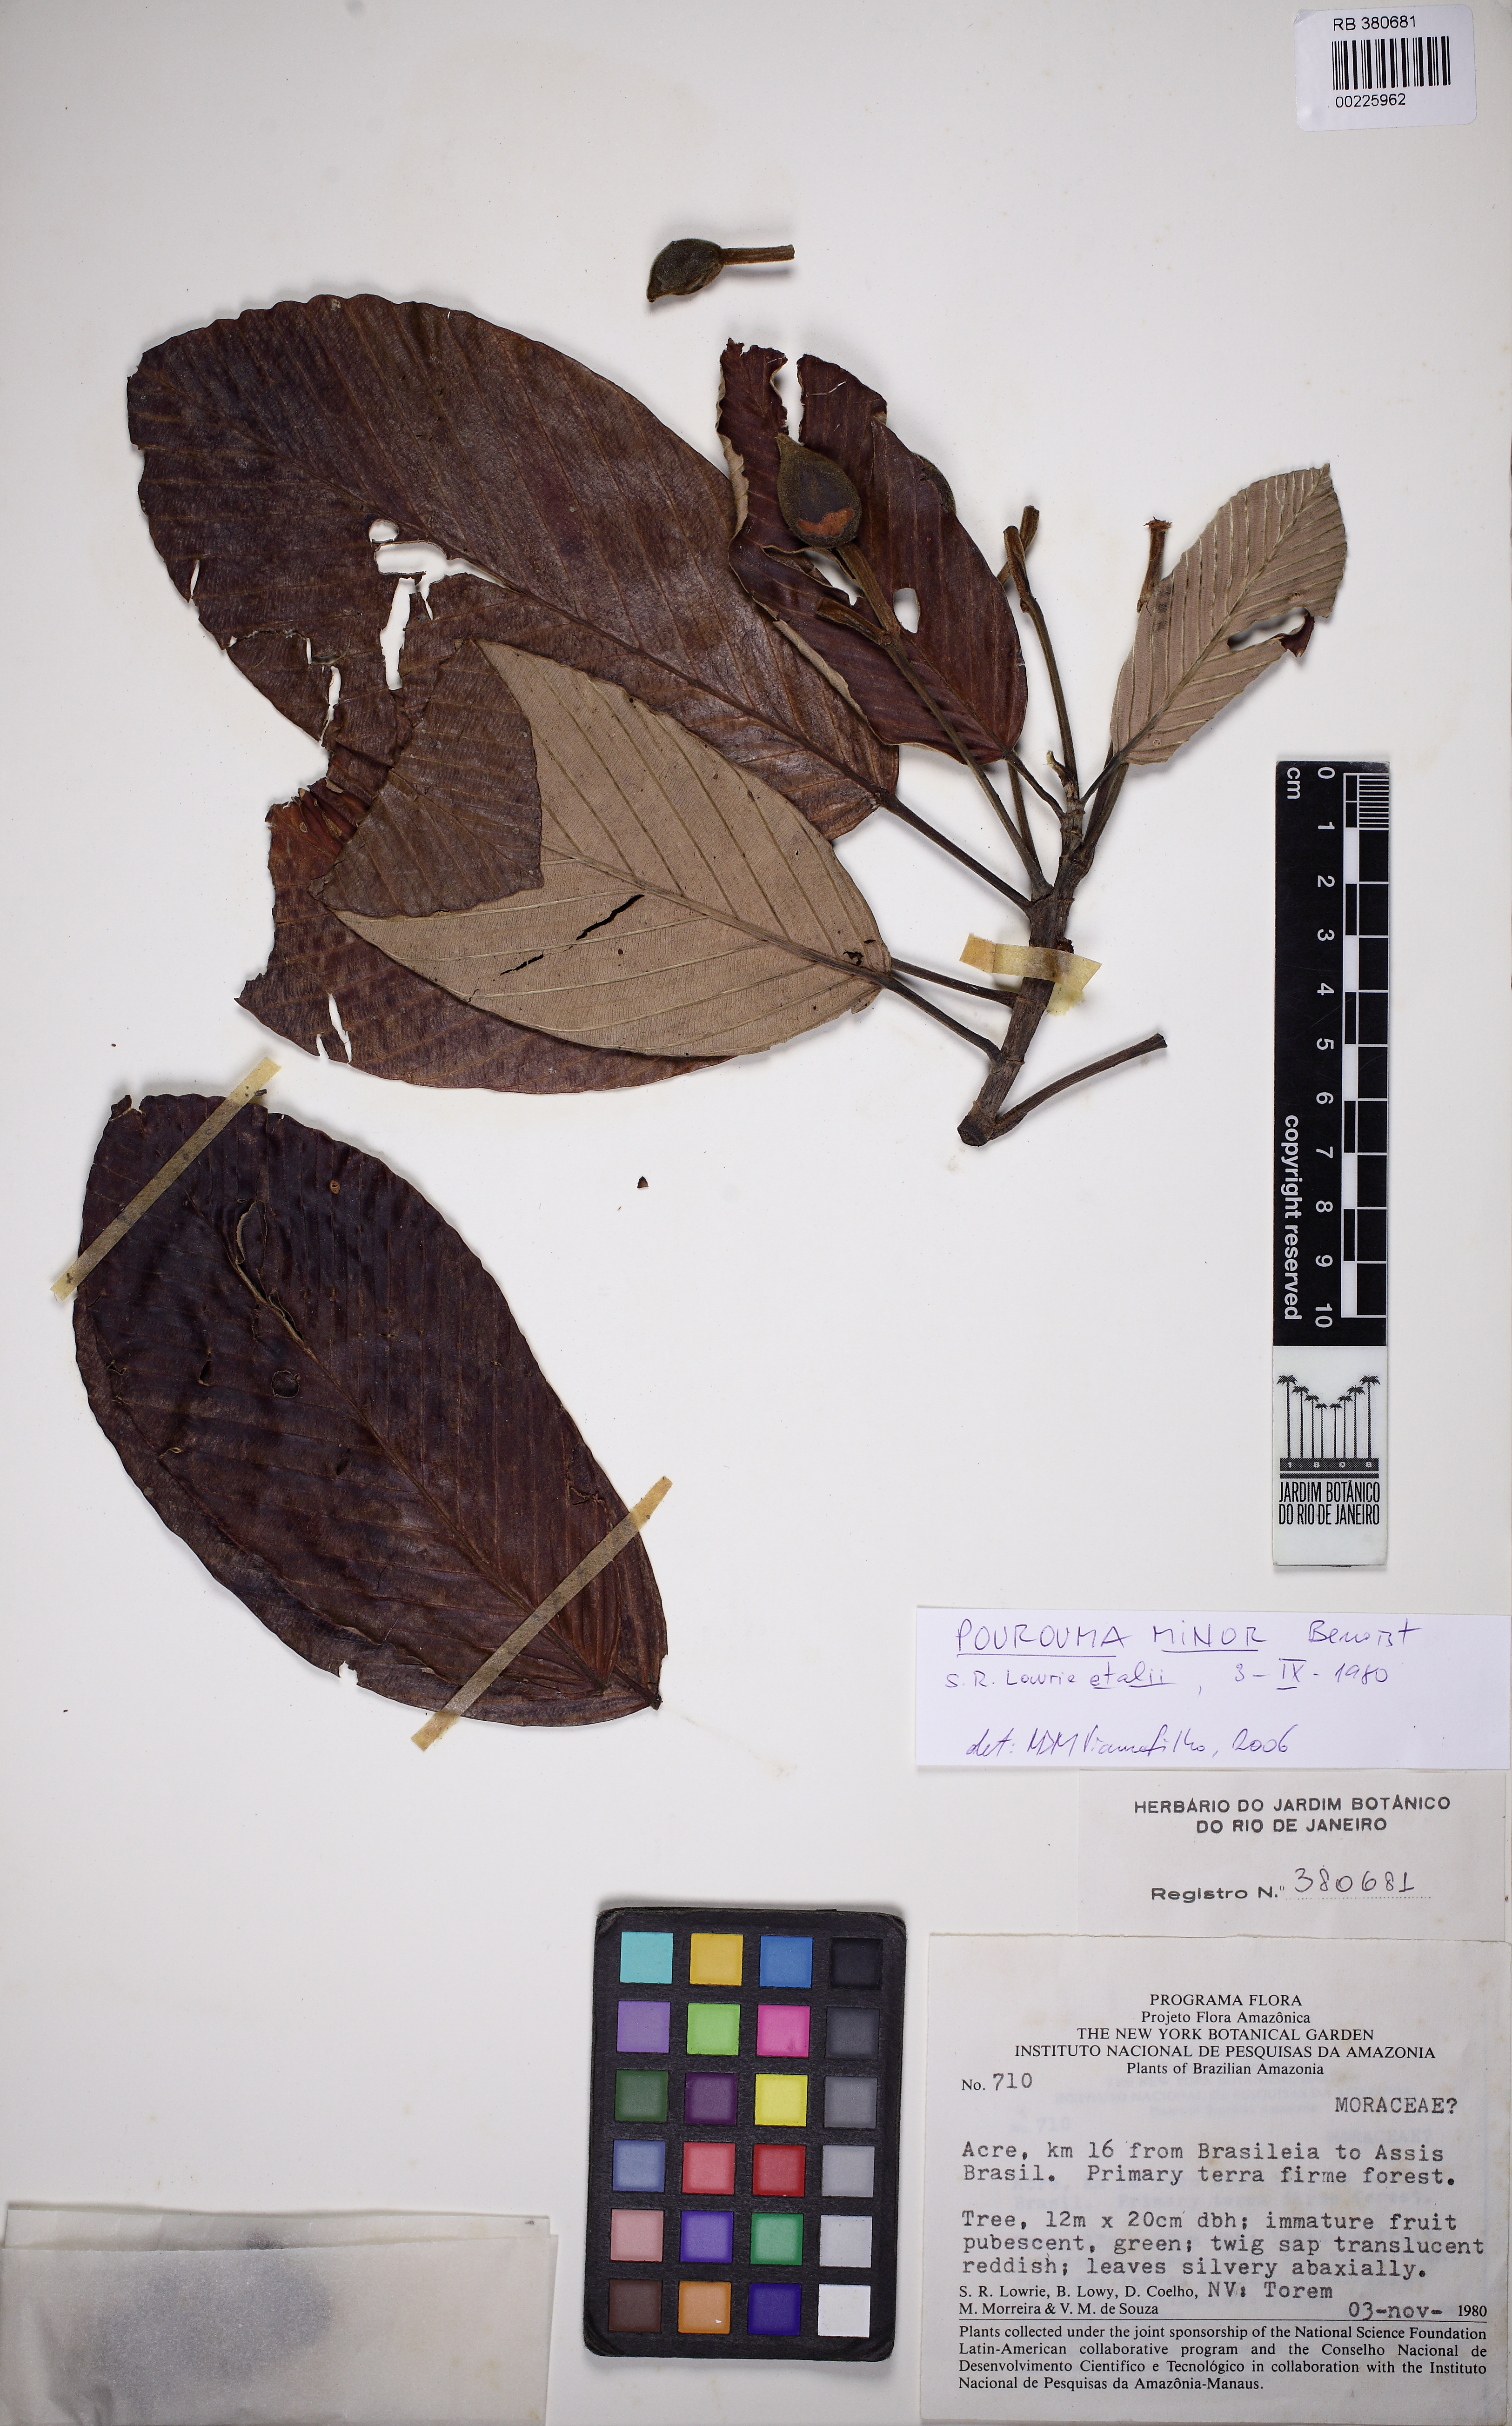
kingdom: Plantae
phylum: Tracheophyta
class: Magnoliopsida
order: Rosales
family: Urticaceae
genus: Pourouma
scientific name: Pourouma minor
